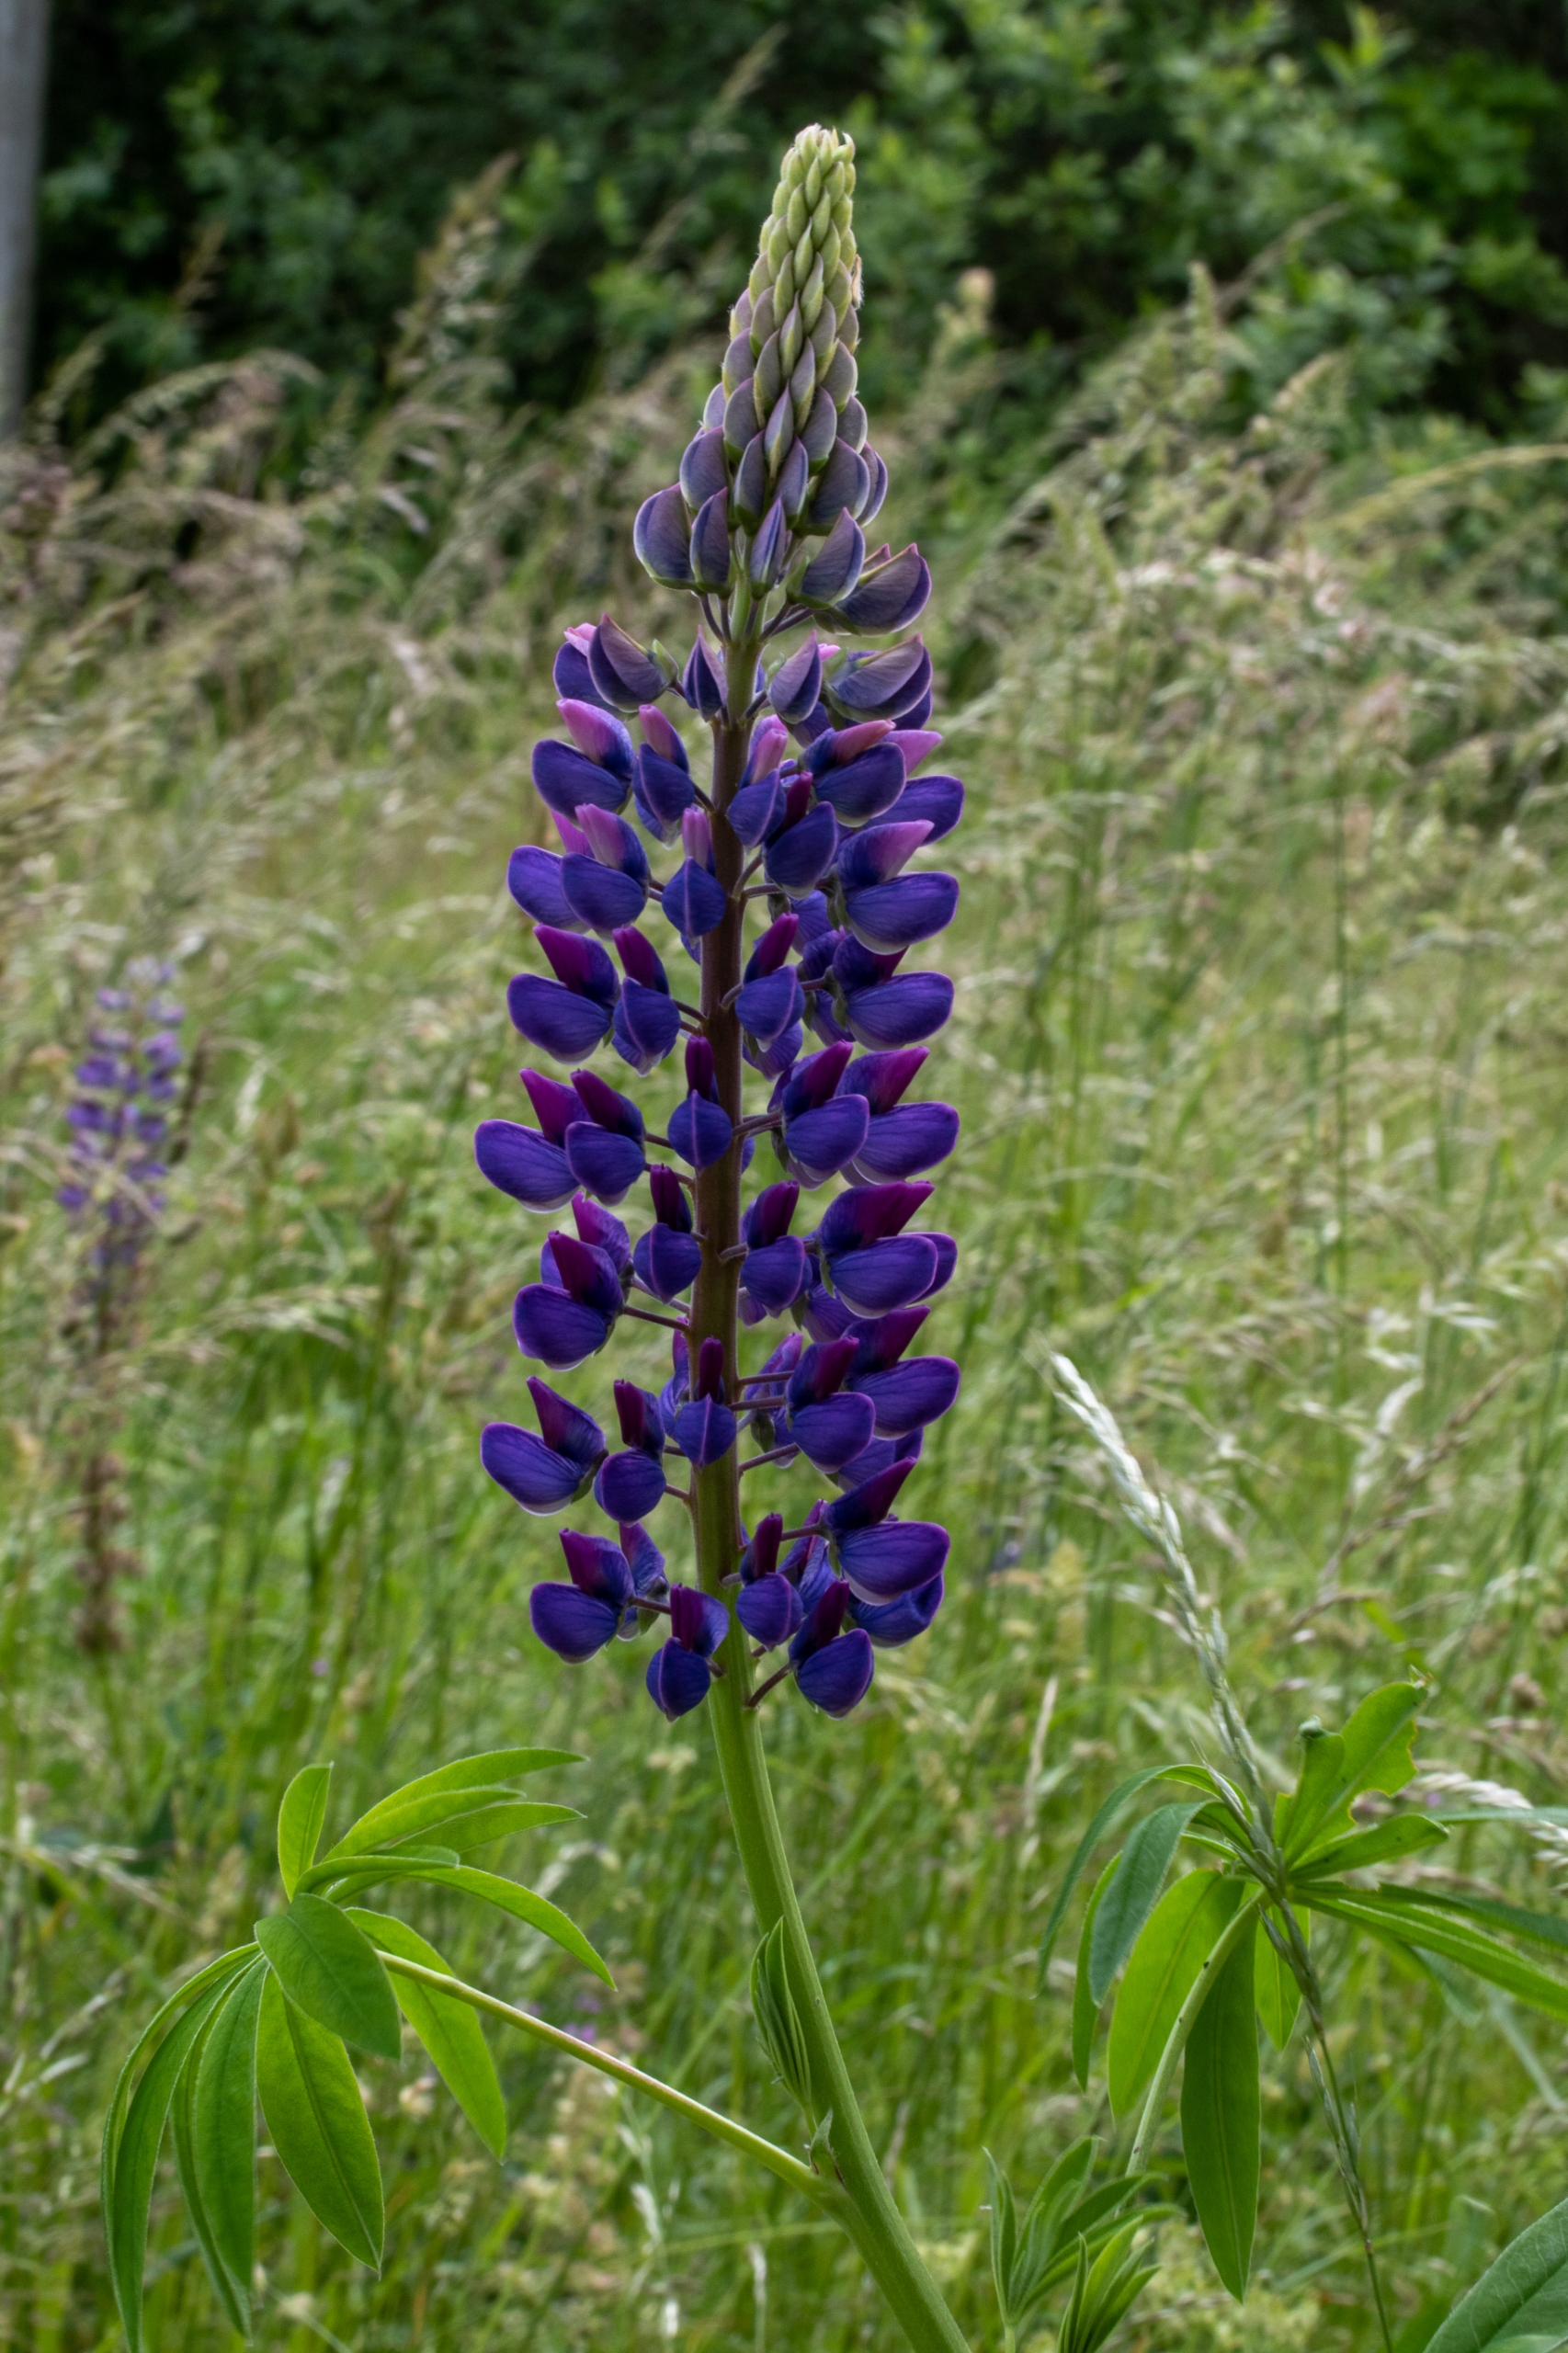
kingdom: Plantae
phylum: Tracheophyta
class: Magnoliopsida
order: Fabales
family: Fabaceae
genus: Lupinus
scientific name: Lupinus polyphyllus
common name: Mangebladet lupin
